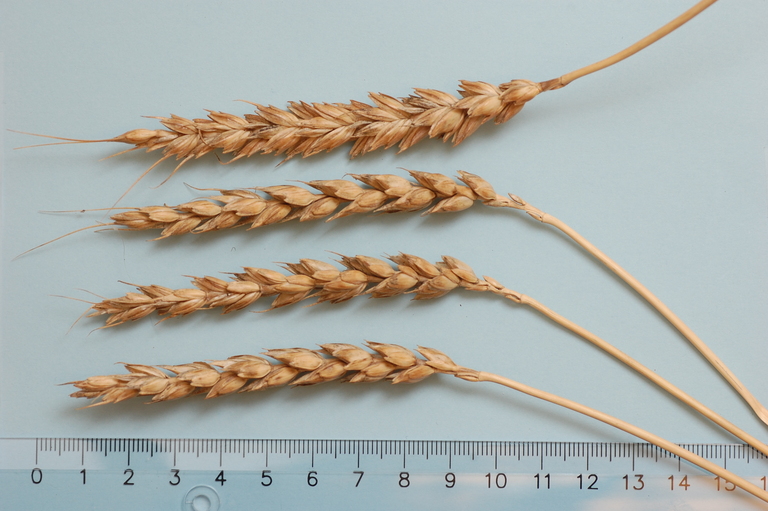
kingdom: Plantae
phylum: Tracheophyta
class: Liliopsida
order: Poales
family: Poaceae
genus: Triticum
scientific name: Triticum aestivum
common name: Common wheat
